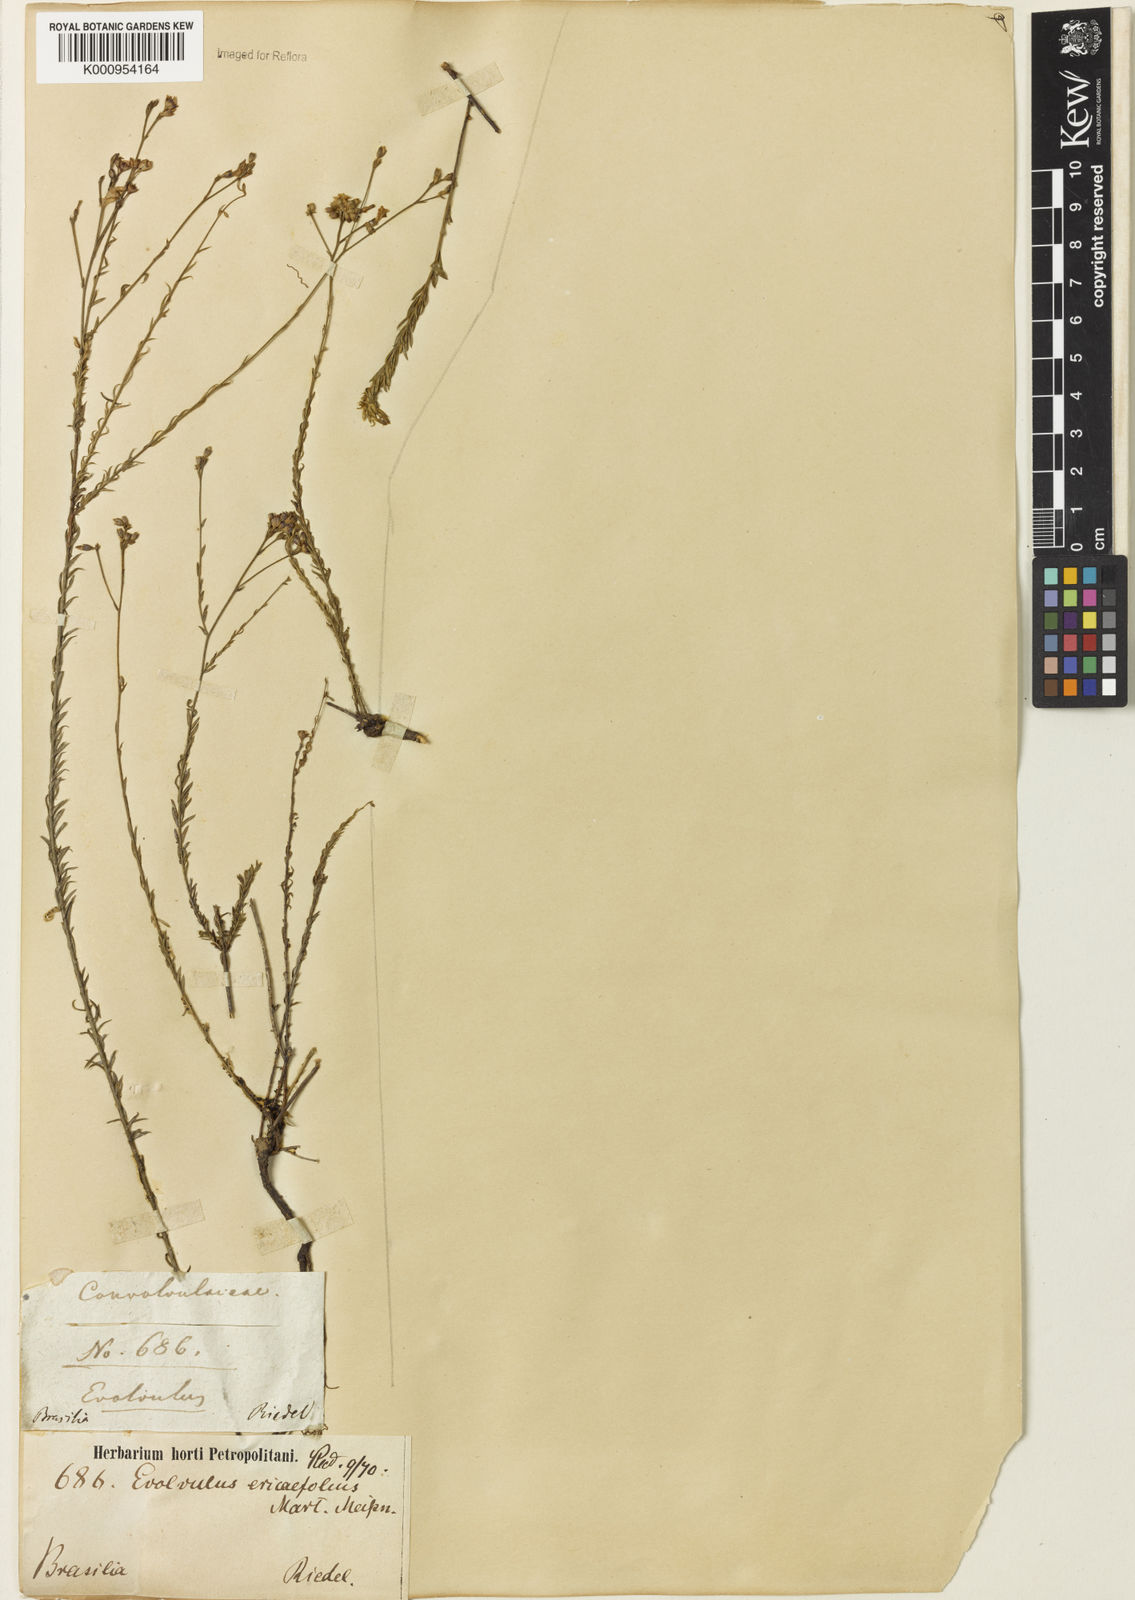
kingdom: Plantae
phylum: Tracheophyta
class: Magnoliopsida
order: Solanales
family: Convolvulaceae
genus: Evolvulus
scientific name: Evolvulus ericifolius
